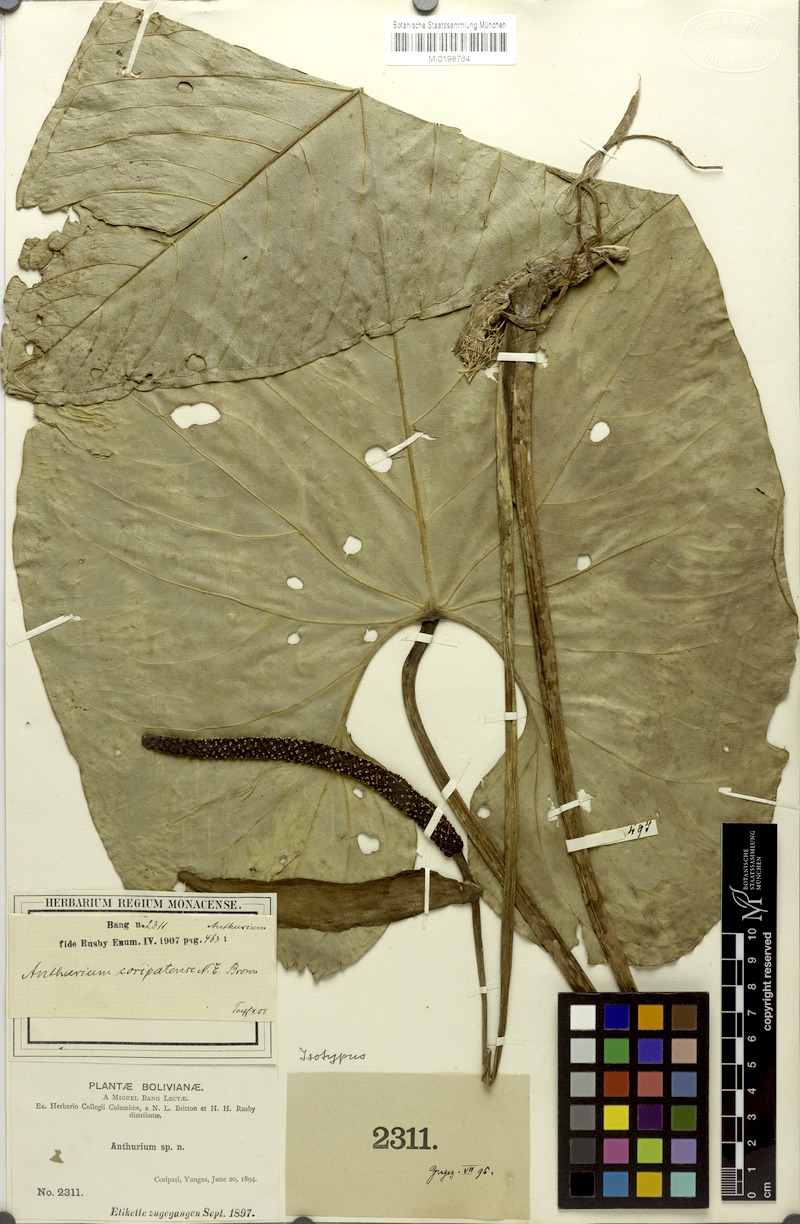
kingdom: Plantae
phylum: Tracheophyta
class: Liliopsida
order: Alismatales
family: Araceae
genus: Anthurium
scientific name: Anthurium coripatense
